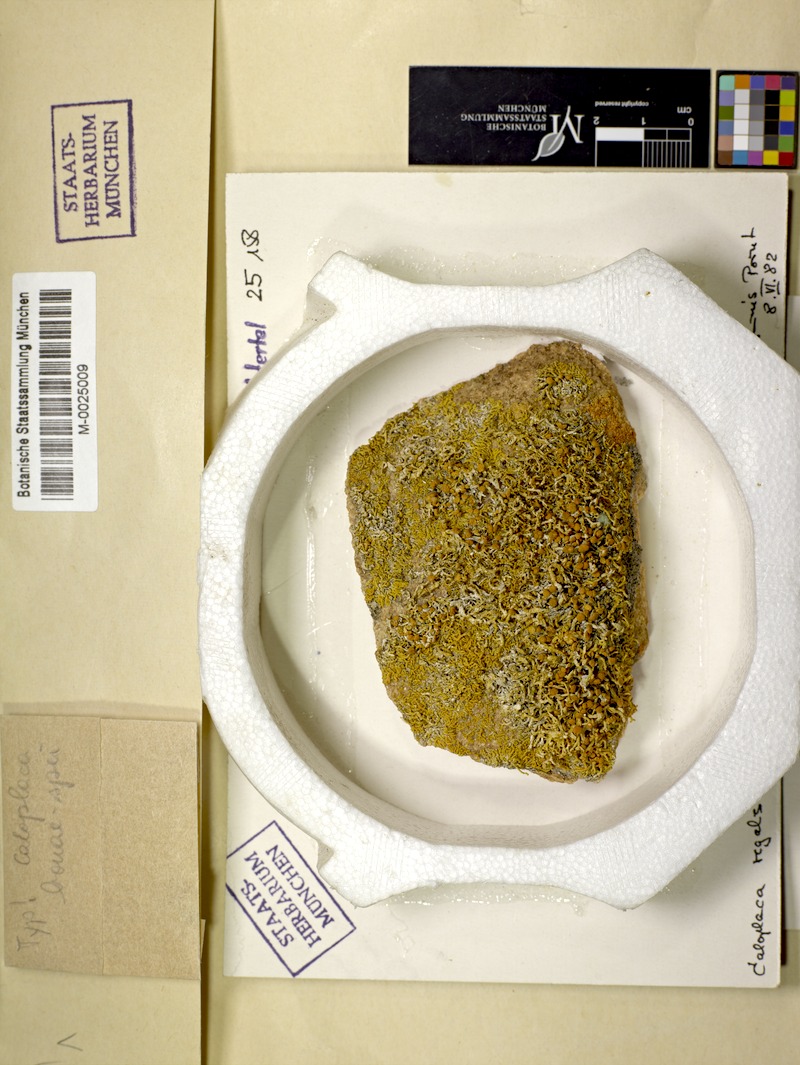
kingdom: Fungi
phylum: Ascomycota
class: Lecanoromycetes
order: Teloschistales
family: Teloschistaceae
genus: Teloschistopsis
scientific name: Teloschistopsis bonae-spei
